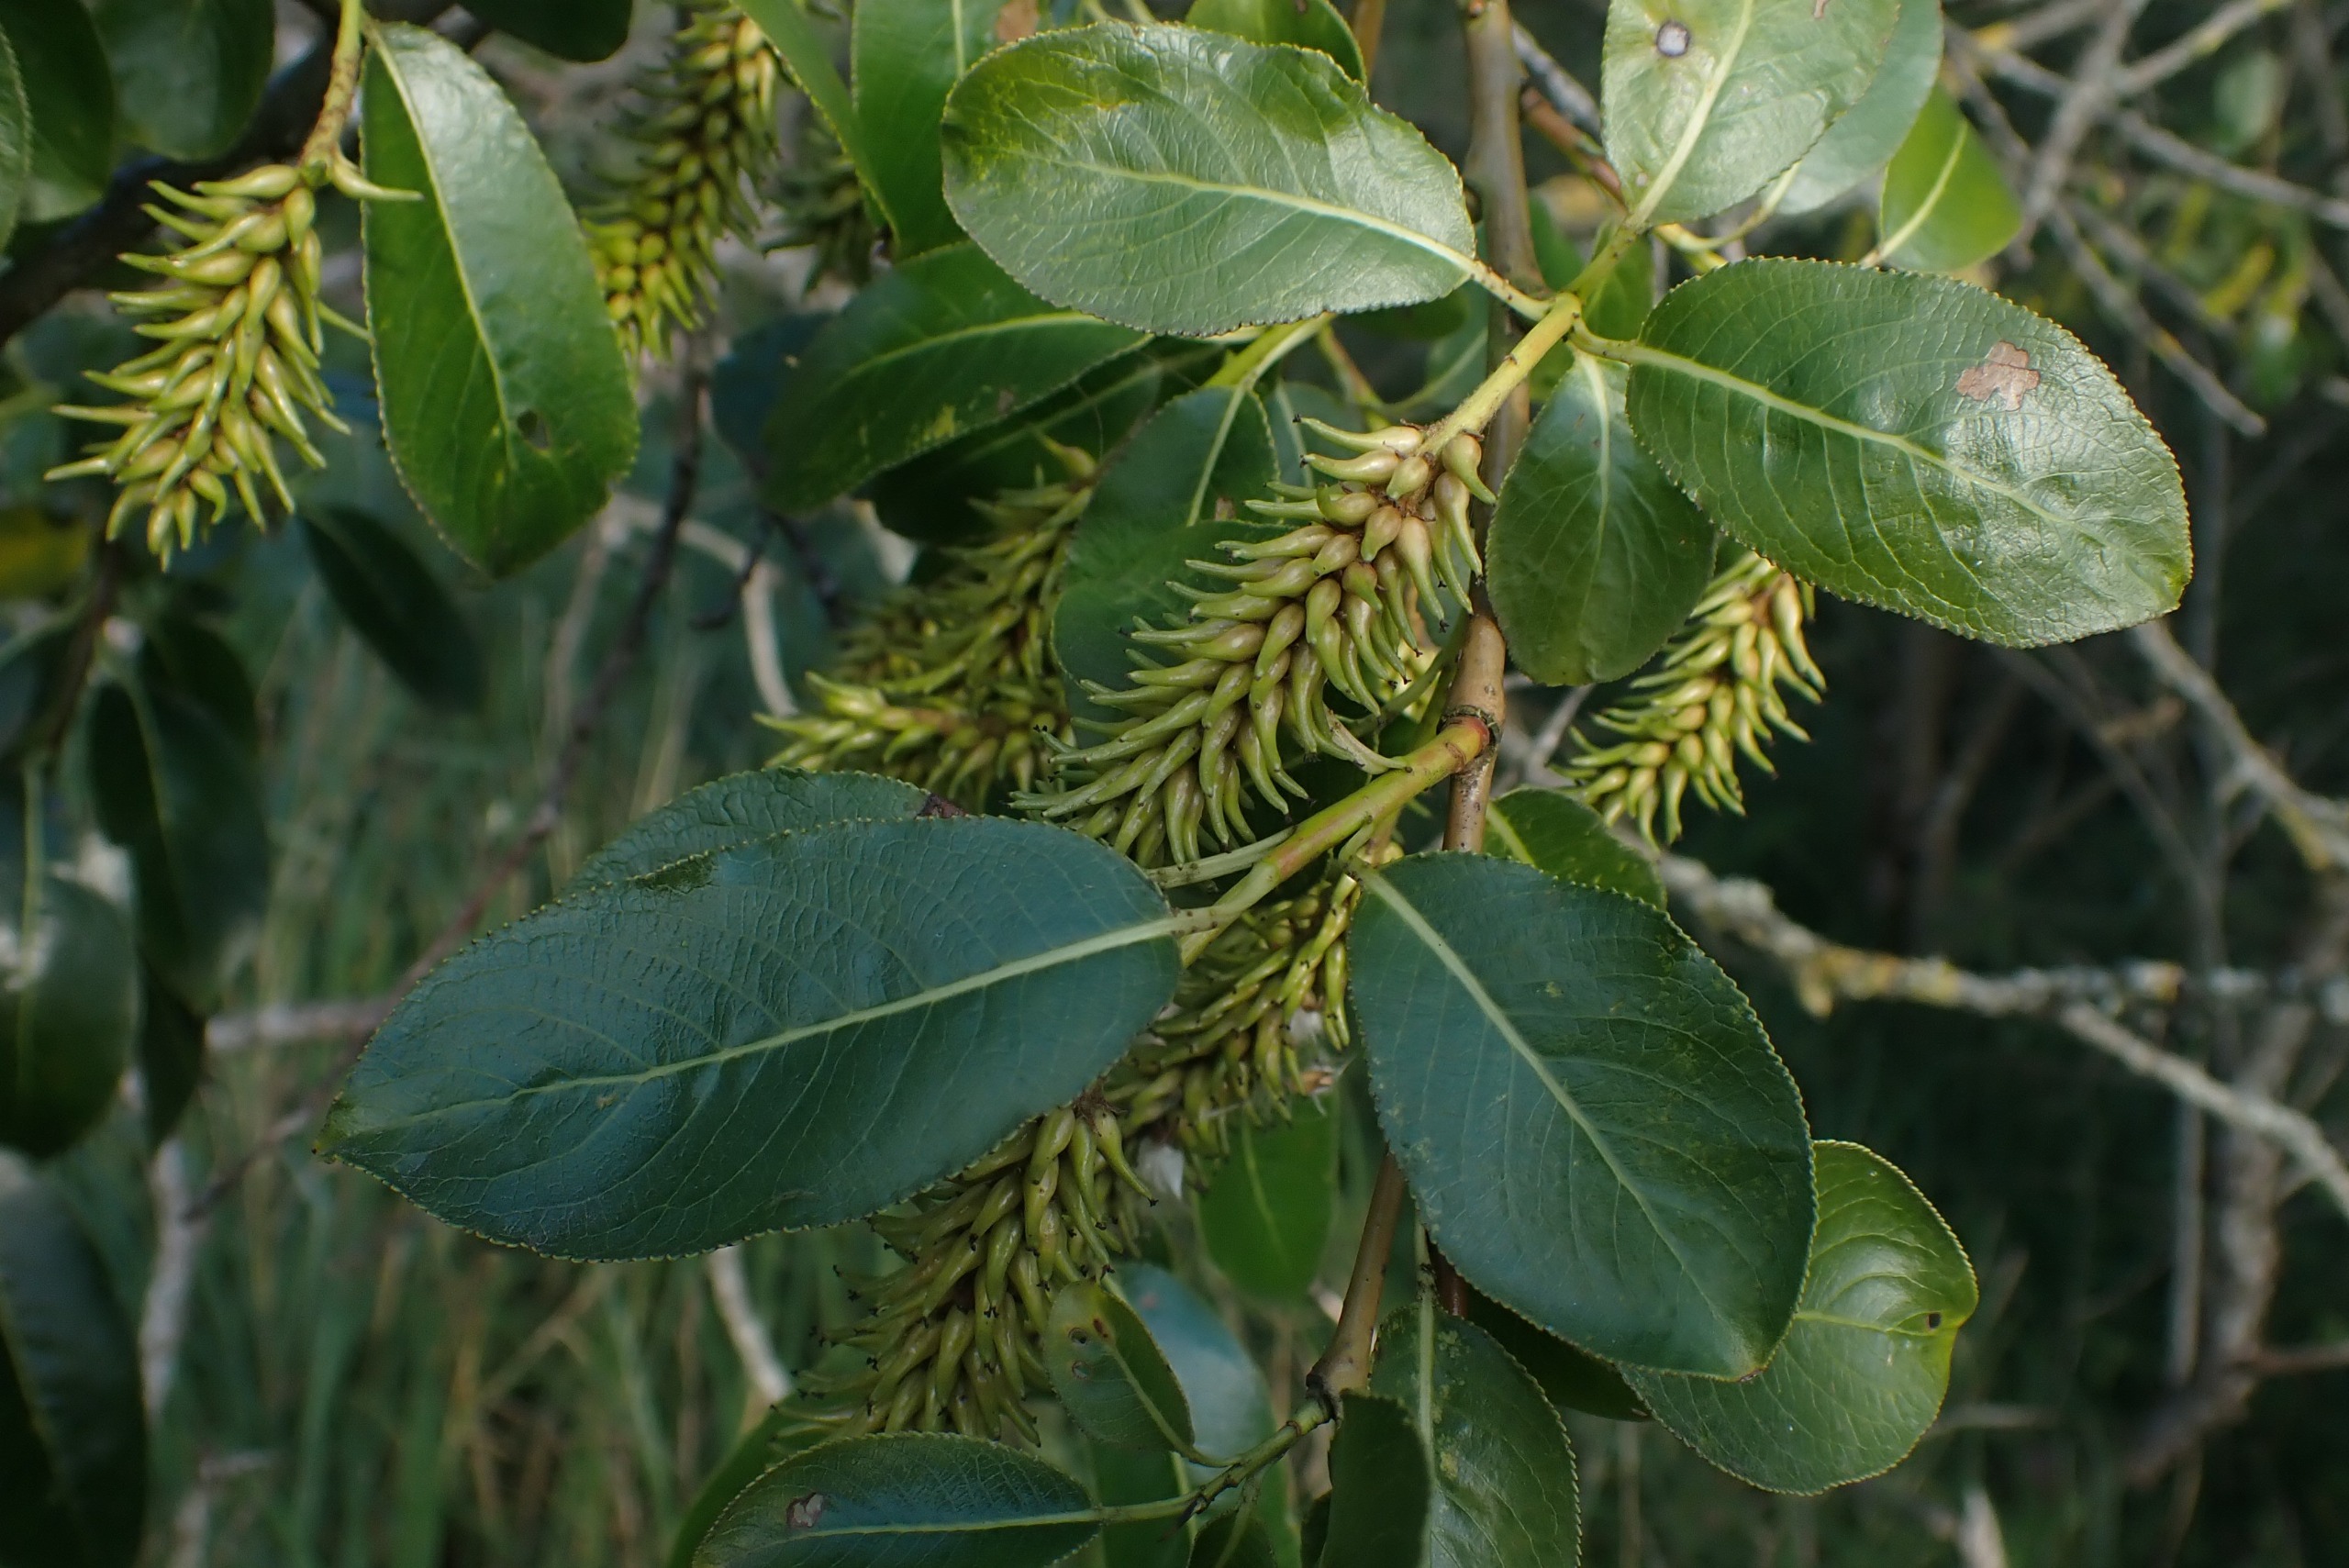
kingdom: Plantae
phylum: Tracheophyta
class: Magnoliopsida
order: Malpighiales
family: Salicaceae
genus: Salix
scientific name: Salix pentandra
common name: Femhannet pil
